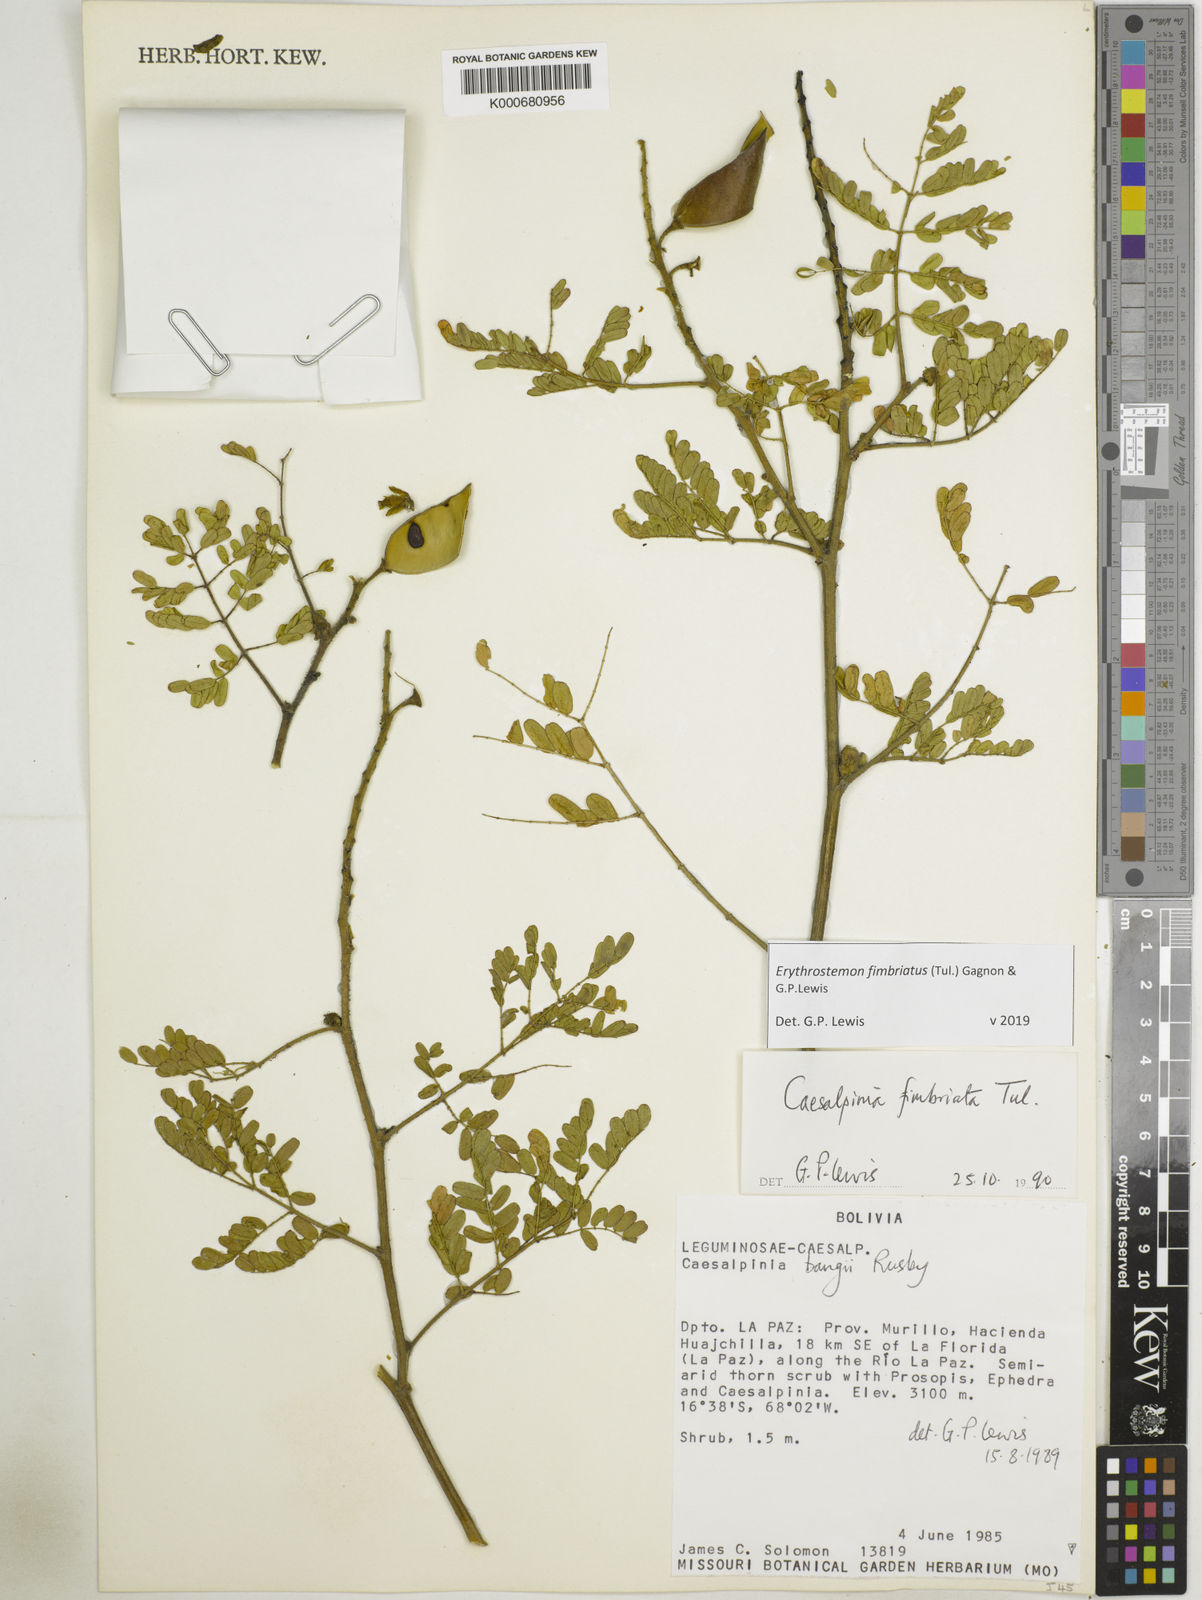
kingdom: Plantae
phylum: Tracheophyta
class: Magnoliopsida
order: Fabales
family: Fabaceae
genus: Erythrostemon
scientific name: Erythrostemon fimbriatus
